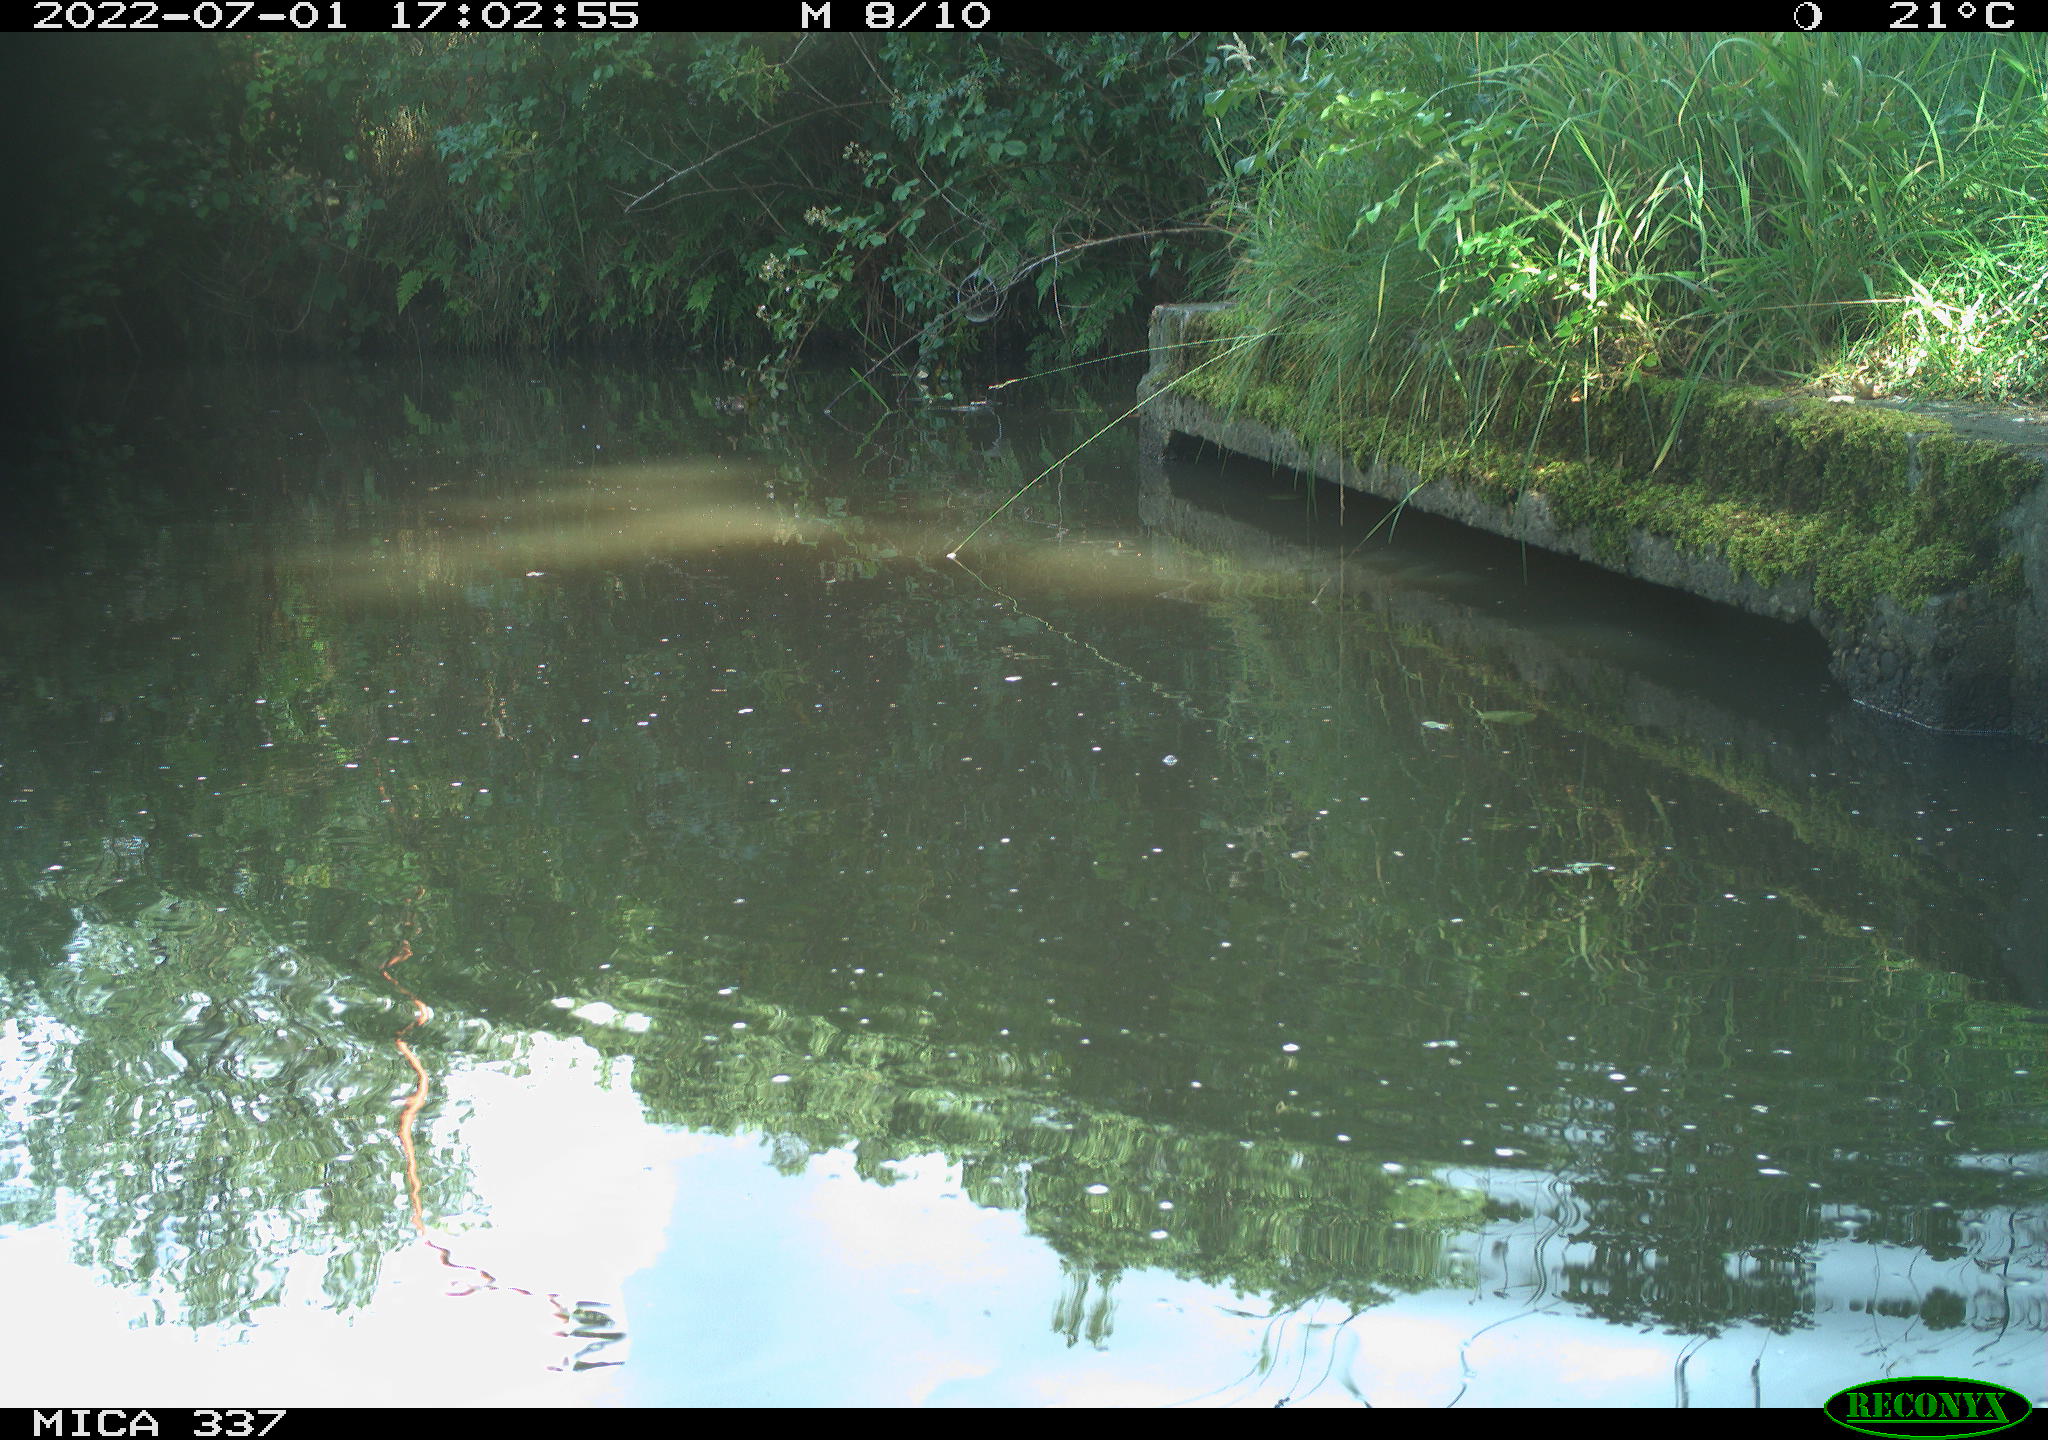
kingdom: Animalia
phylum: Chordata
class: Aves
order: Gruiformes
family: Rallidae
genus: Gallinula
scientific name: Gallinula chloropus
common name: Common moorhen
